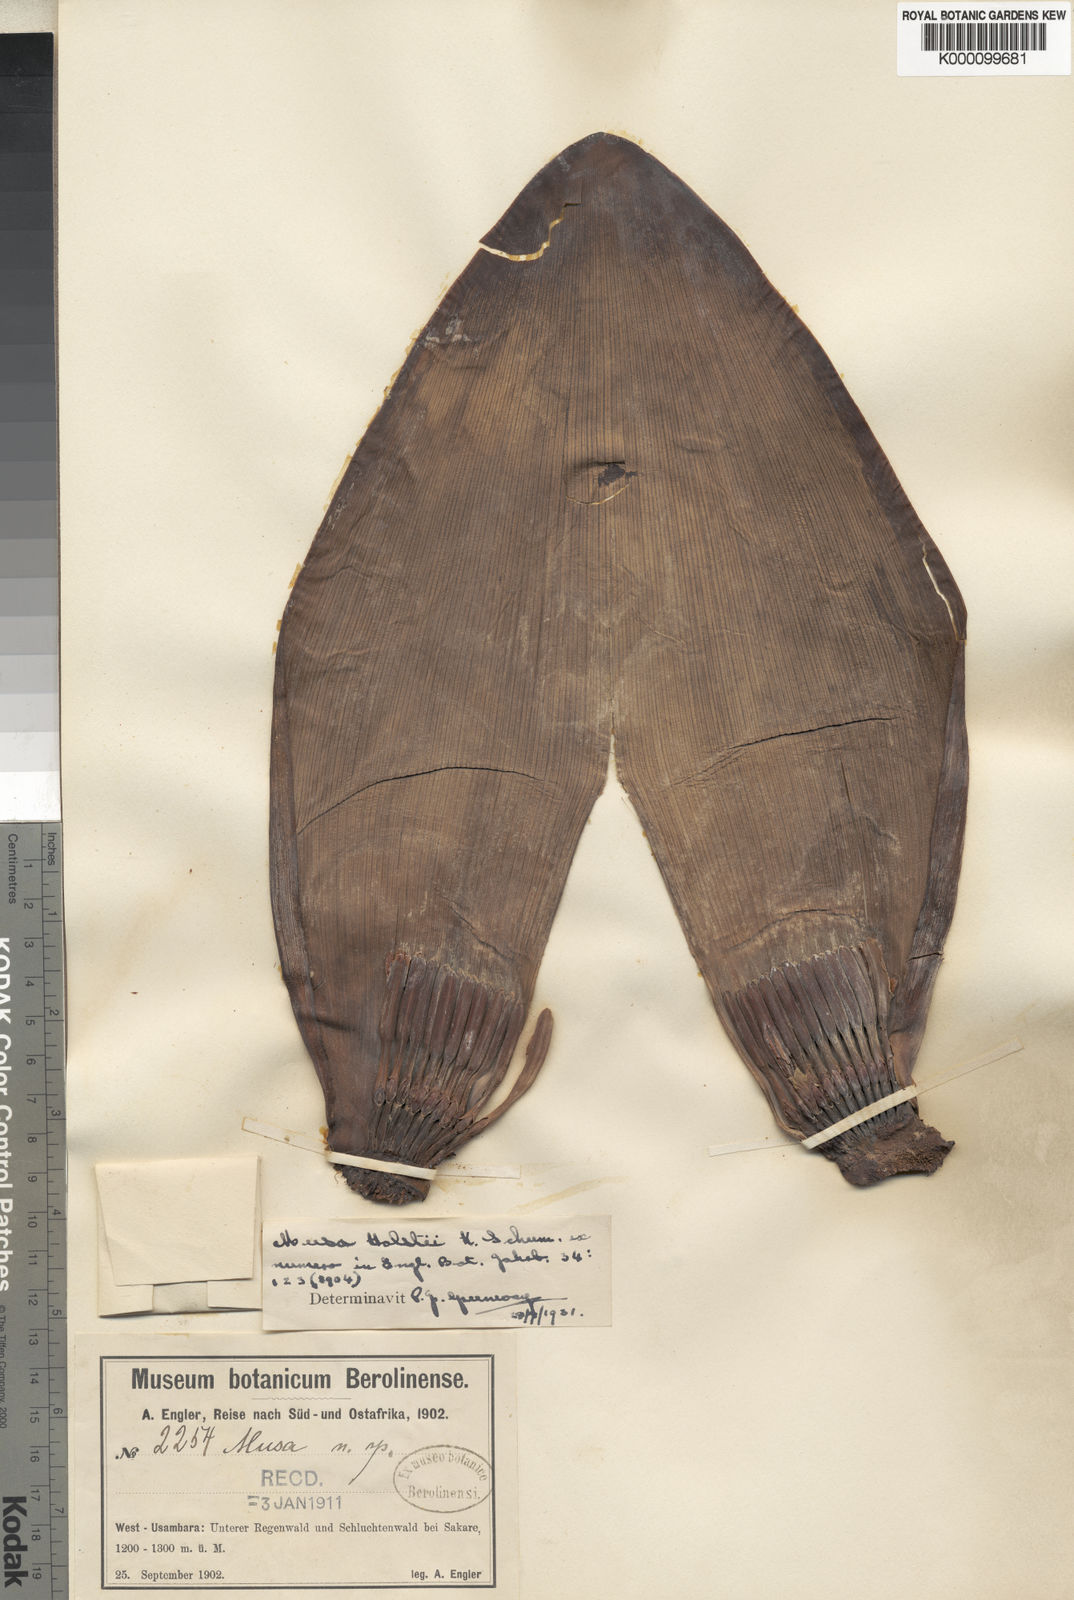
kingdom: Plantae
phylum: Tracheophyta
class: Liliopsida
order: Zingiberales
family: Musaceae
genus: Ensete
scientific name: Ensete ventricosum
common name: Abyssinian banana
